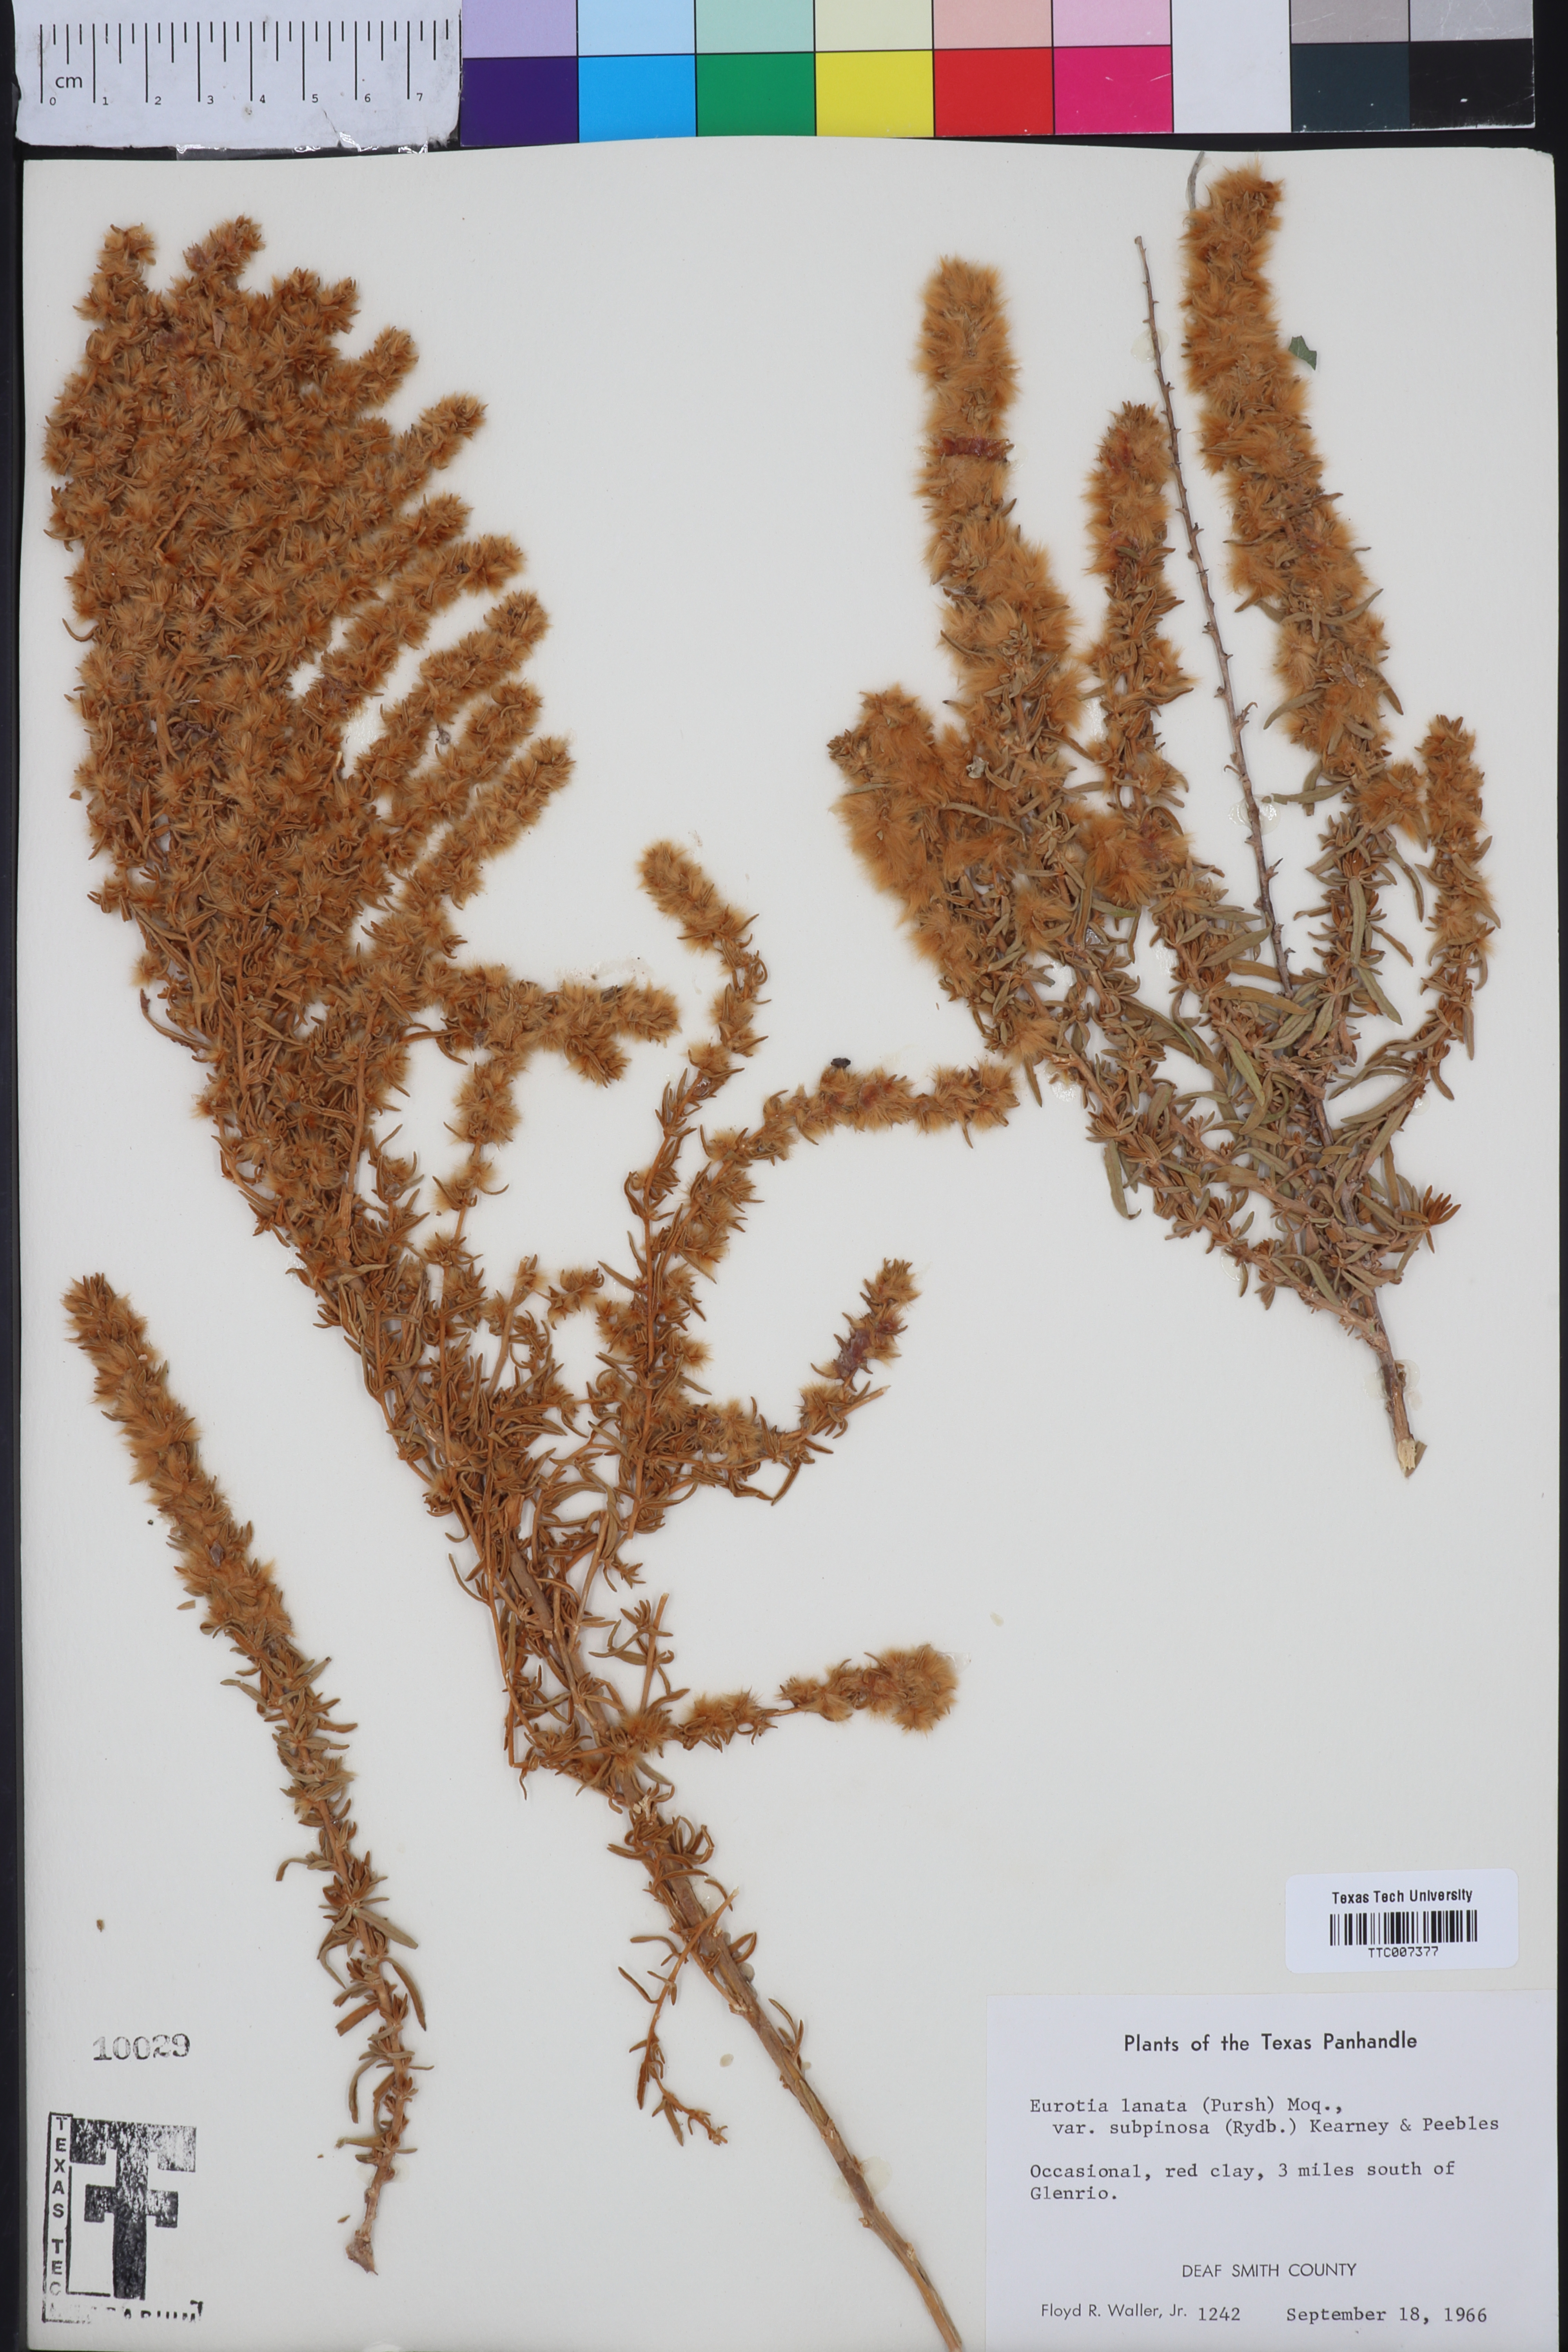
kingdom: Plantae
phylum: Tracheophyta
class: Magnoliopsida
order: Caryophyllales
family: Amaranthaceae
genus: Krascheninnikovia
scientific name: Krascheninnikovia lanata
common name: Winterfat
